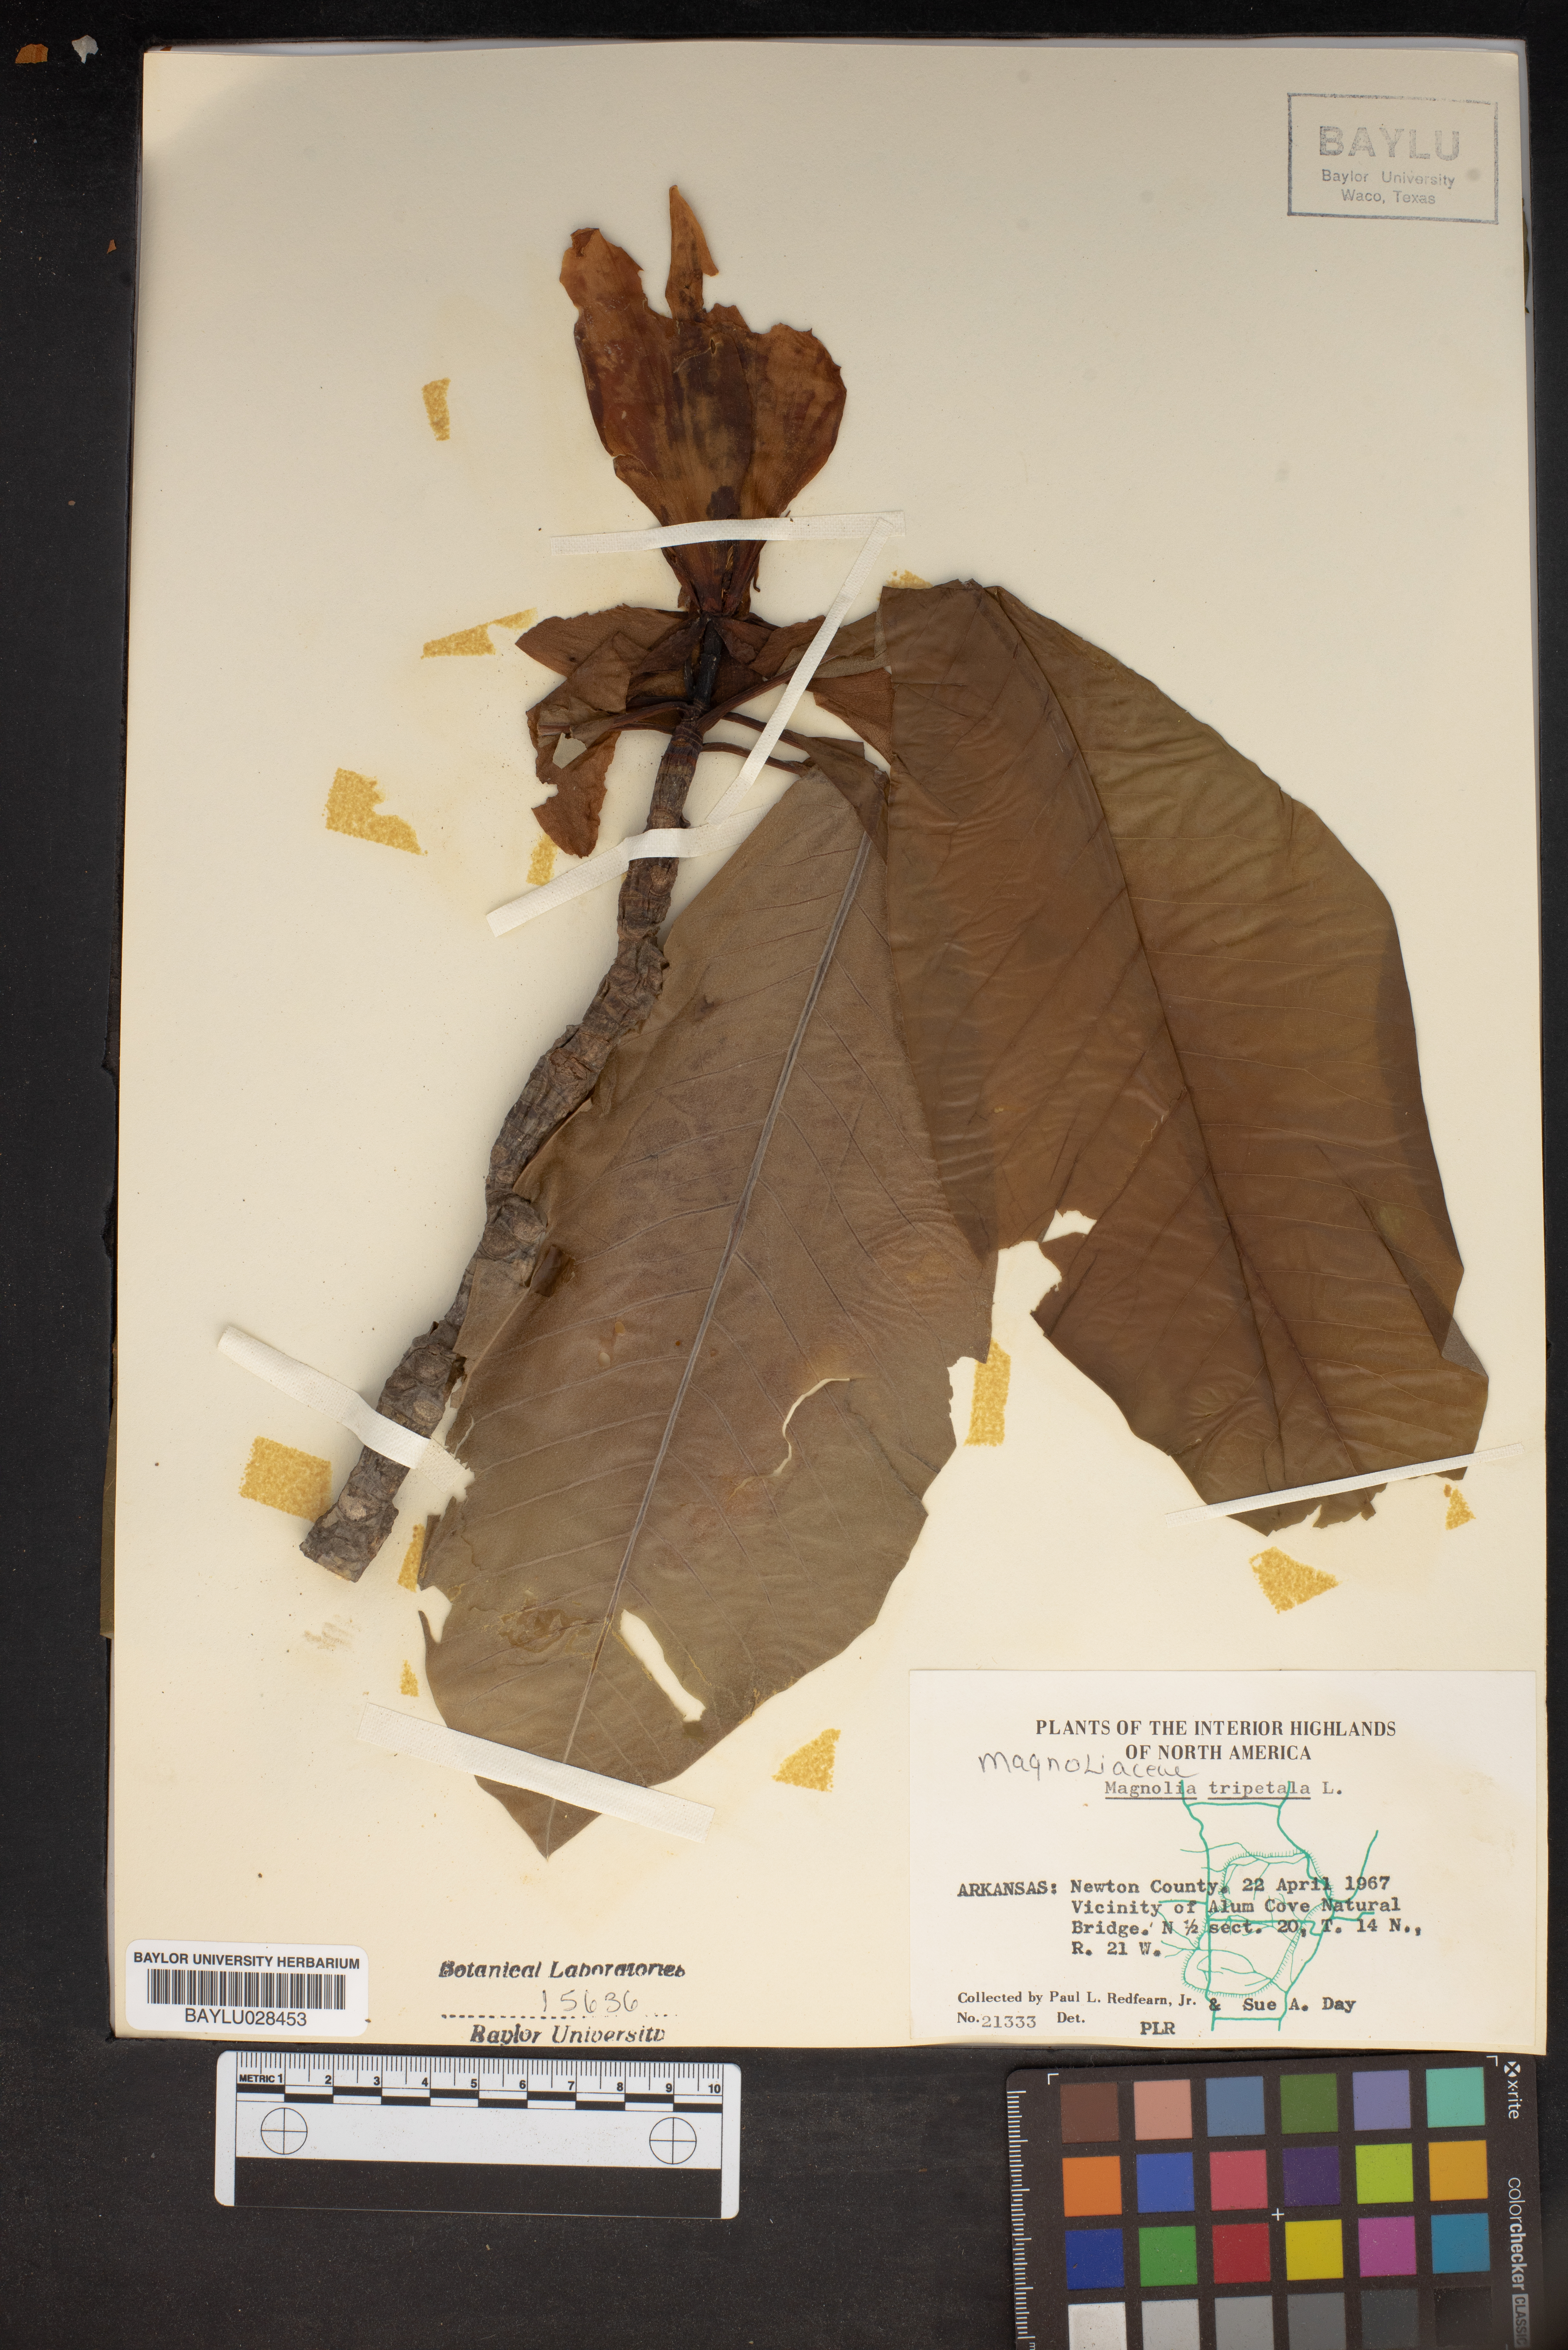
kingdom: Plantae
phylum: Tracheophyta
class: Magnoliopsida
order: Magnoliales
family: Magnoliaceae
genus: Magnolia
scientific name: Magnolia tripetala
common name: Umbrella magnolia
